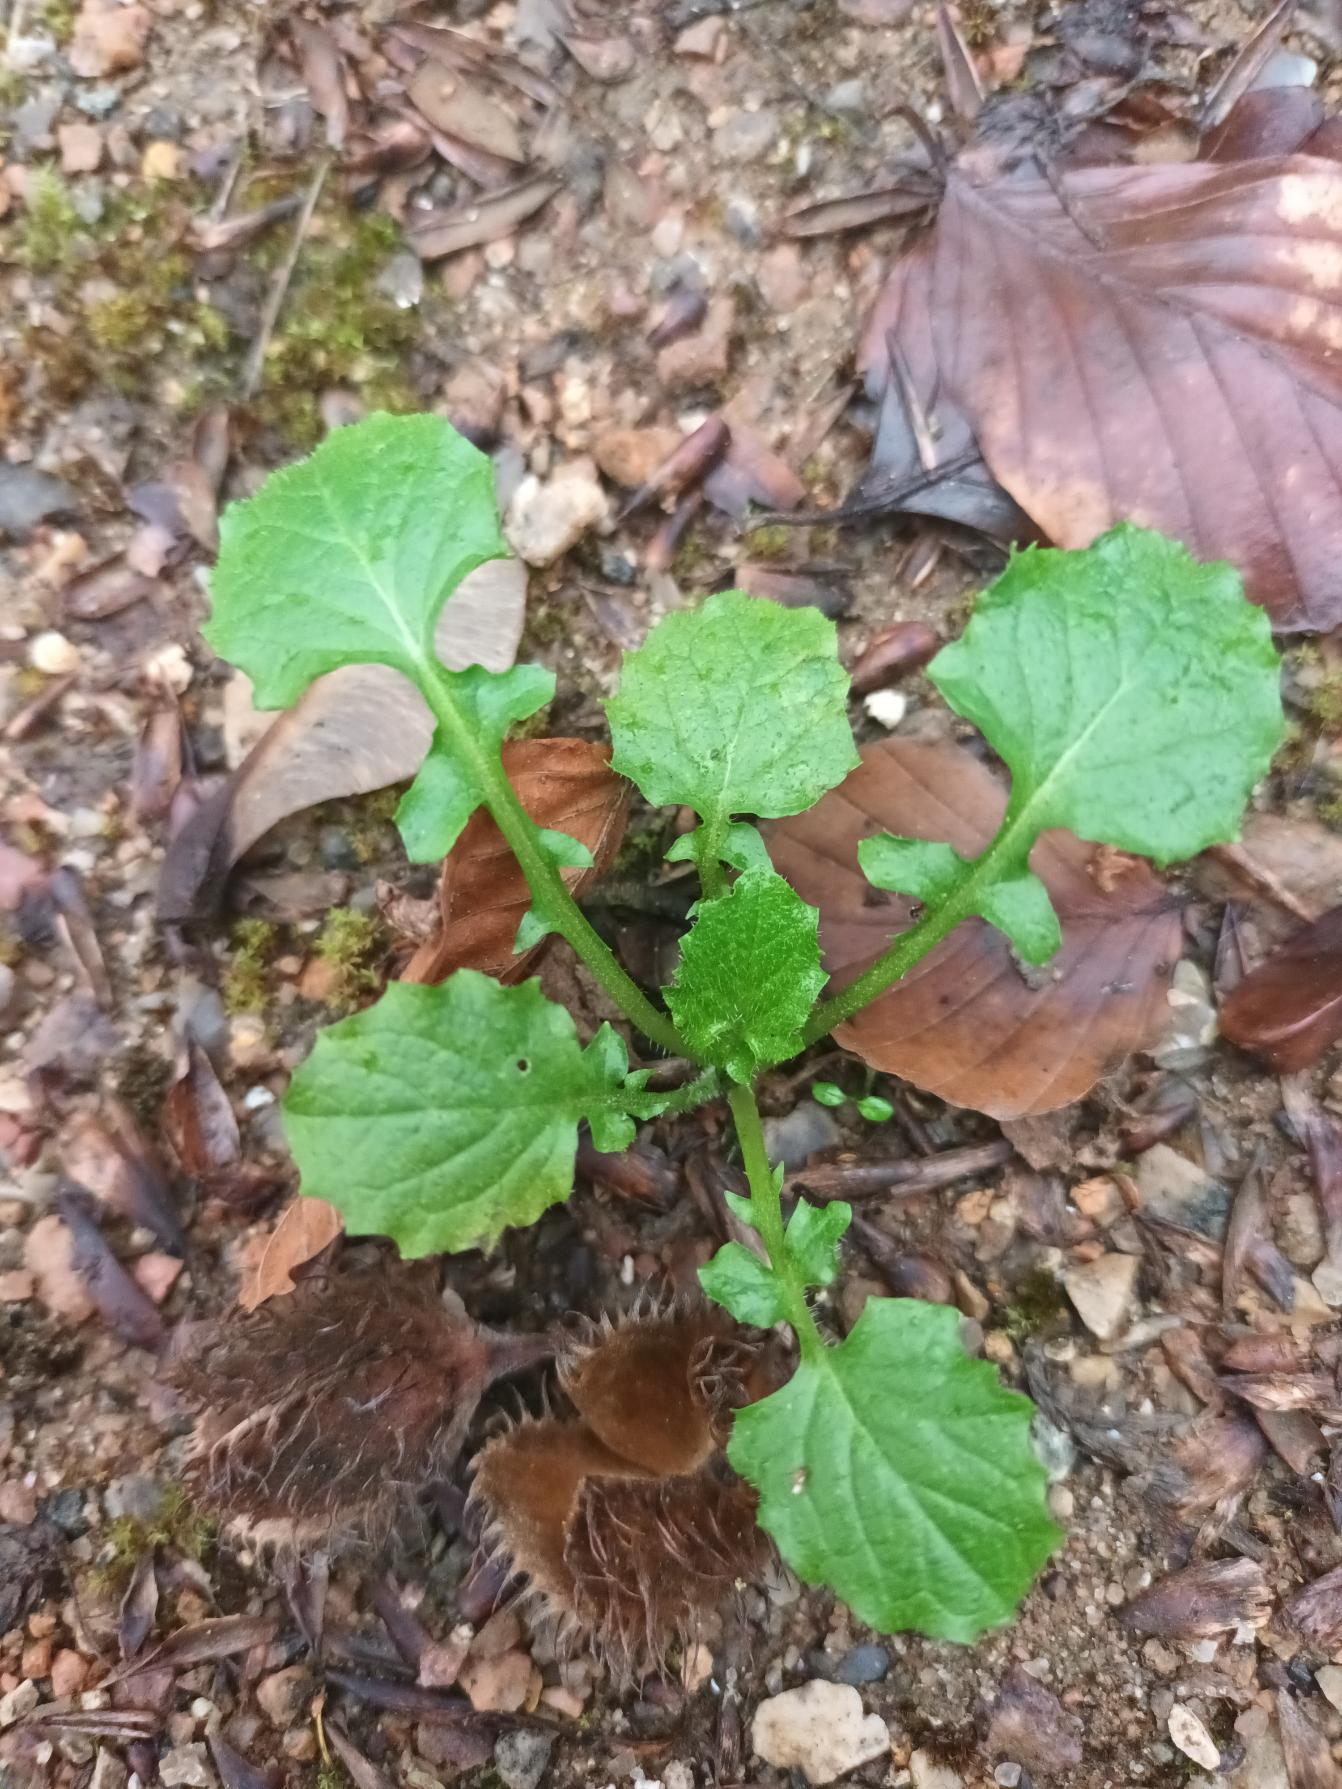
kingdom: Plantae
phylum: Tracheophyta
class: Magnoliopsida
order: Asterales
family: Asteraceae
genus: Lapsana
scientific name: Lapsana communis
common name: Haremad
